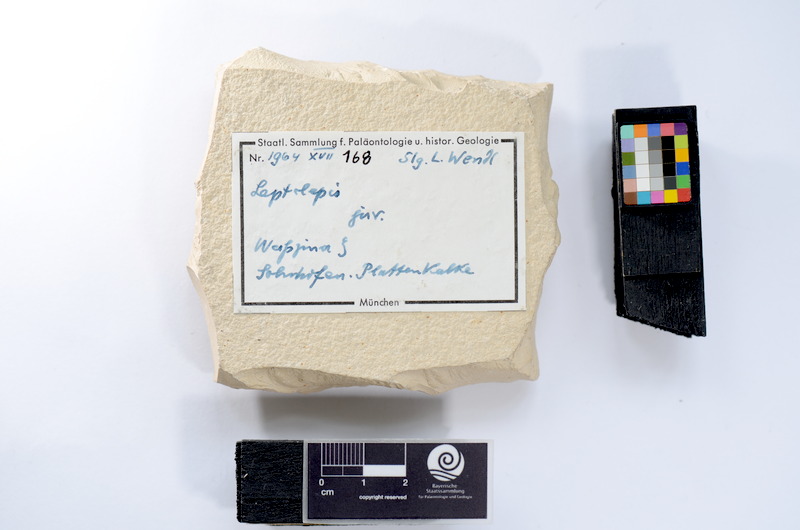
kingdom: Animalia
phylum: Chordata
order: Salmoniformes
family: Orthogonikleithridae
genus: Leptolepides
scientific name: Leptolepides
